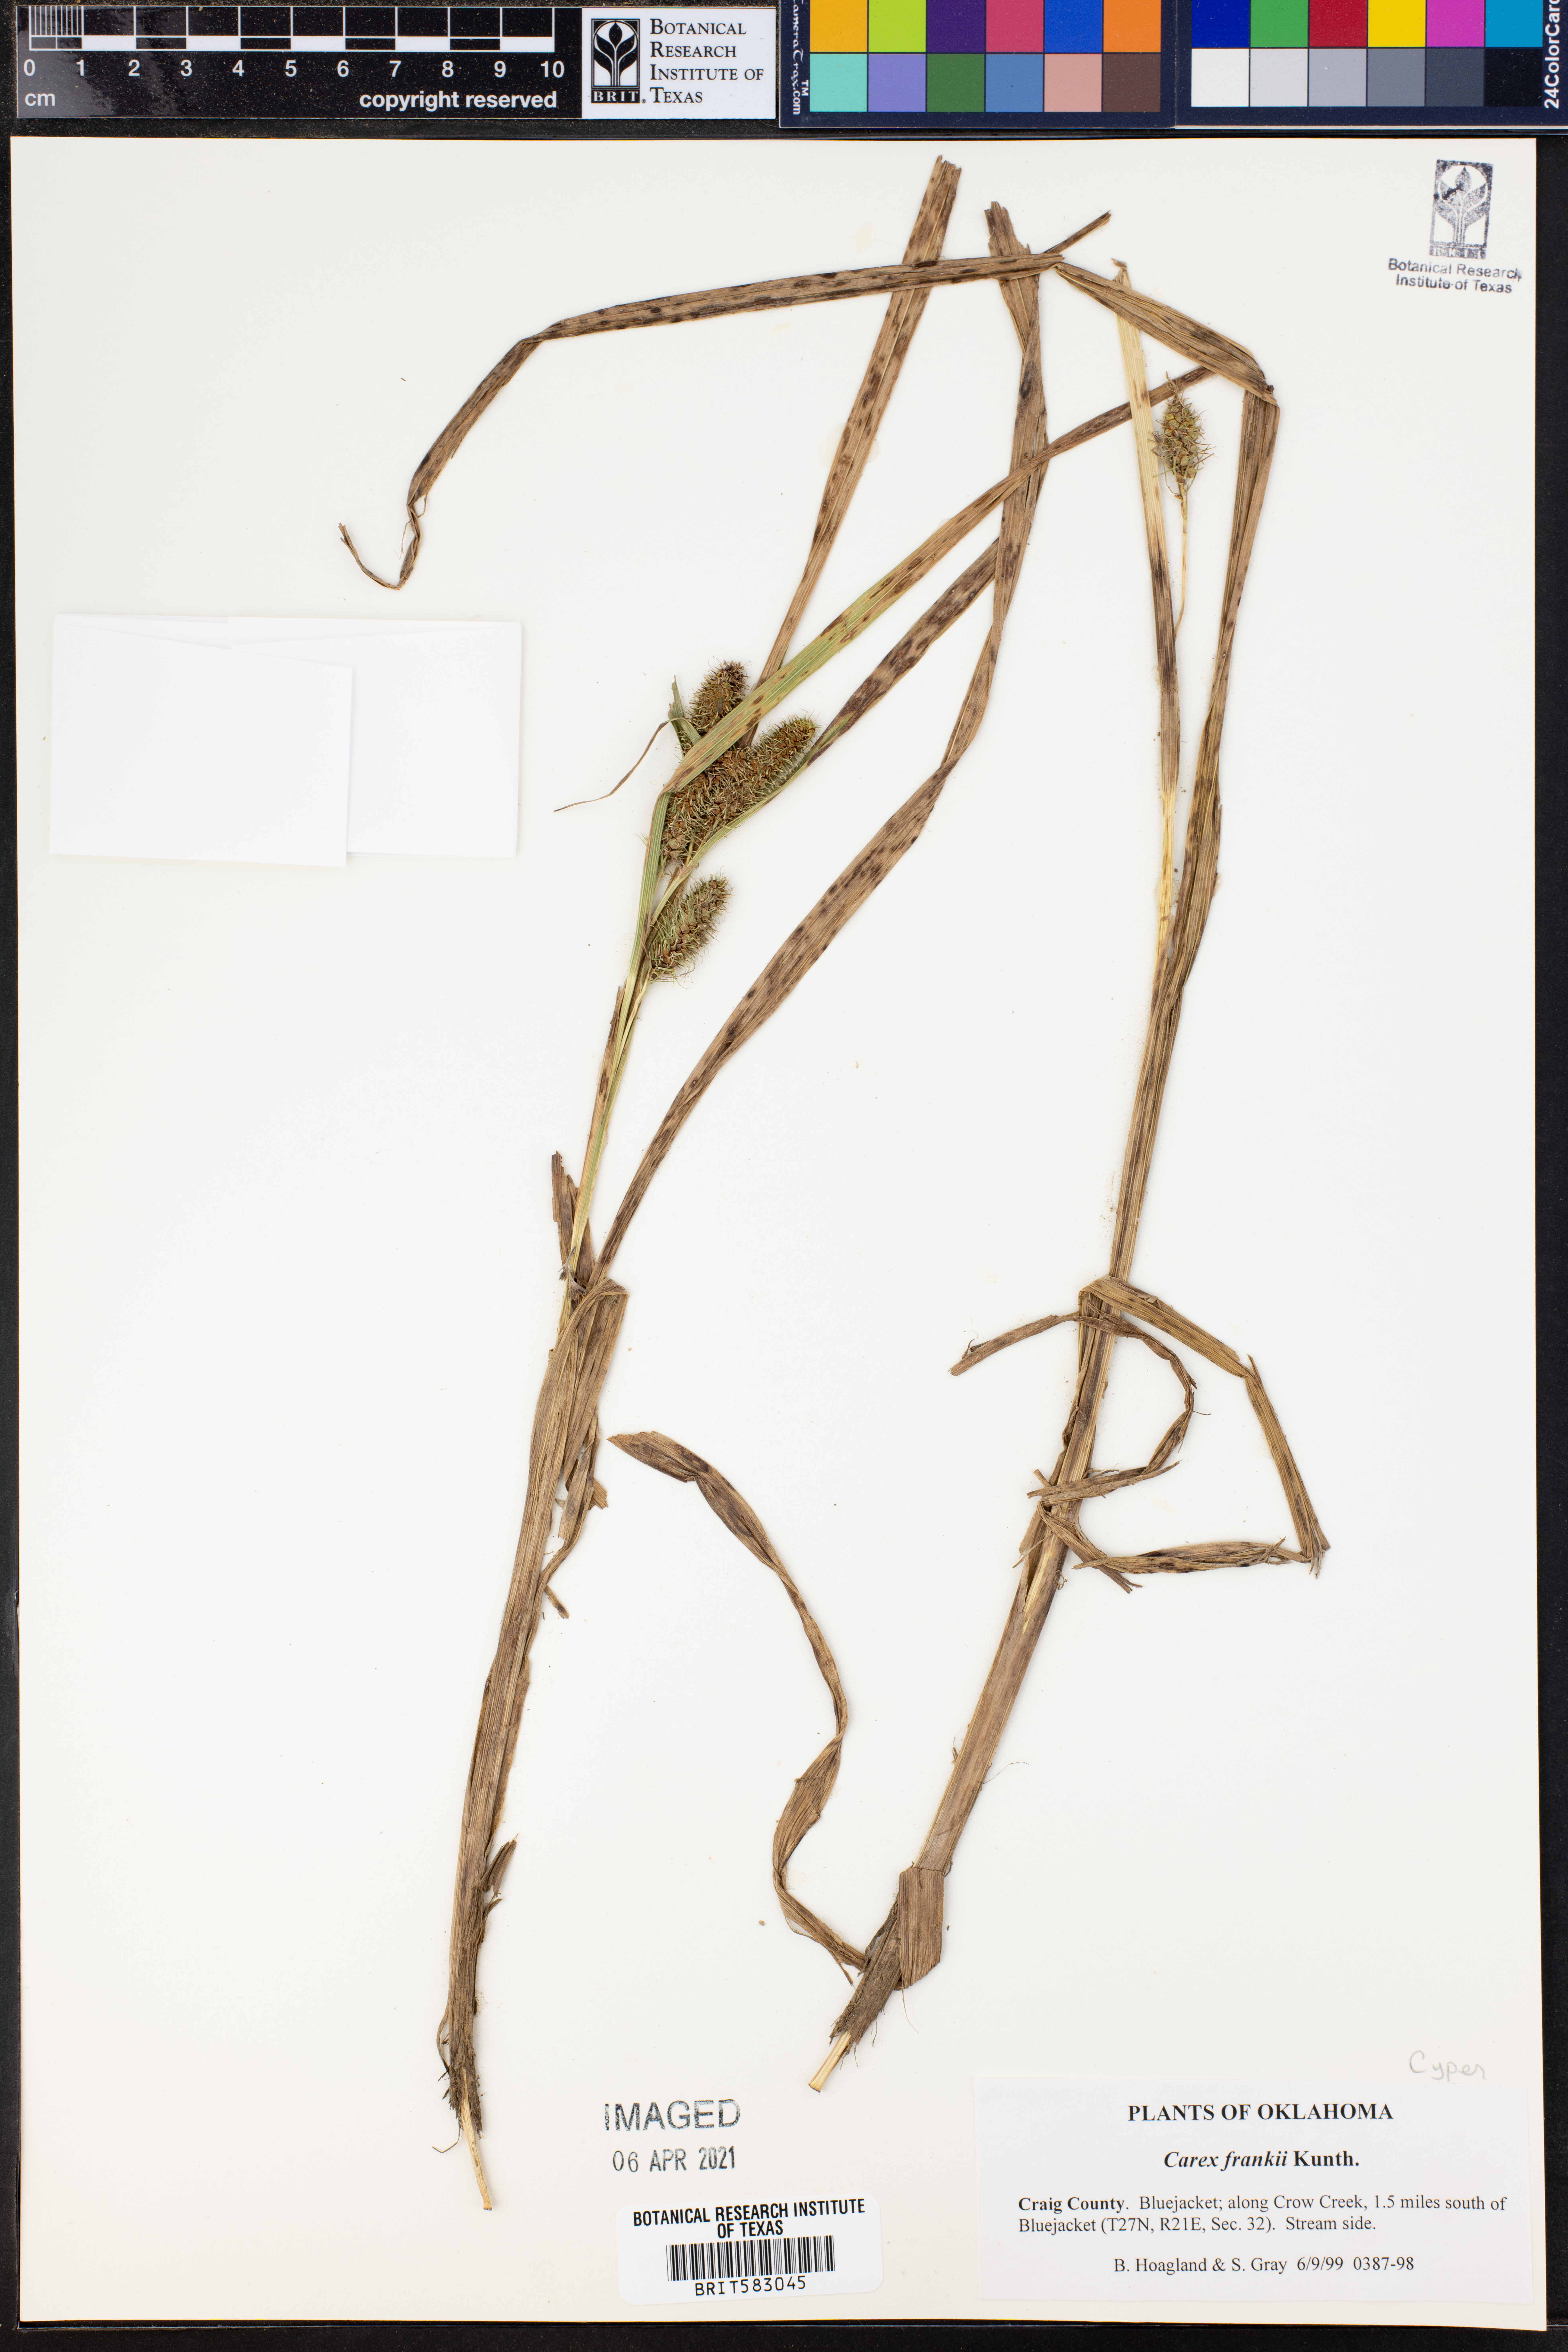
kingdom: Plantae
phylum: Tracheophyta
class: Liliopsida
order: Poales
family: Cyperaceae
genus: Carex
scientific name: Carex frankii
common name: Frank's sedge
